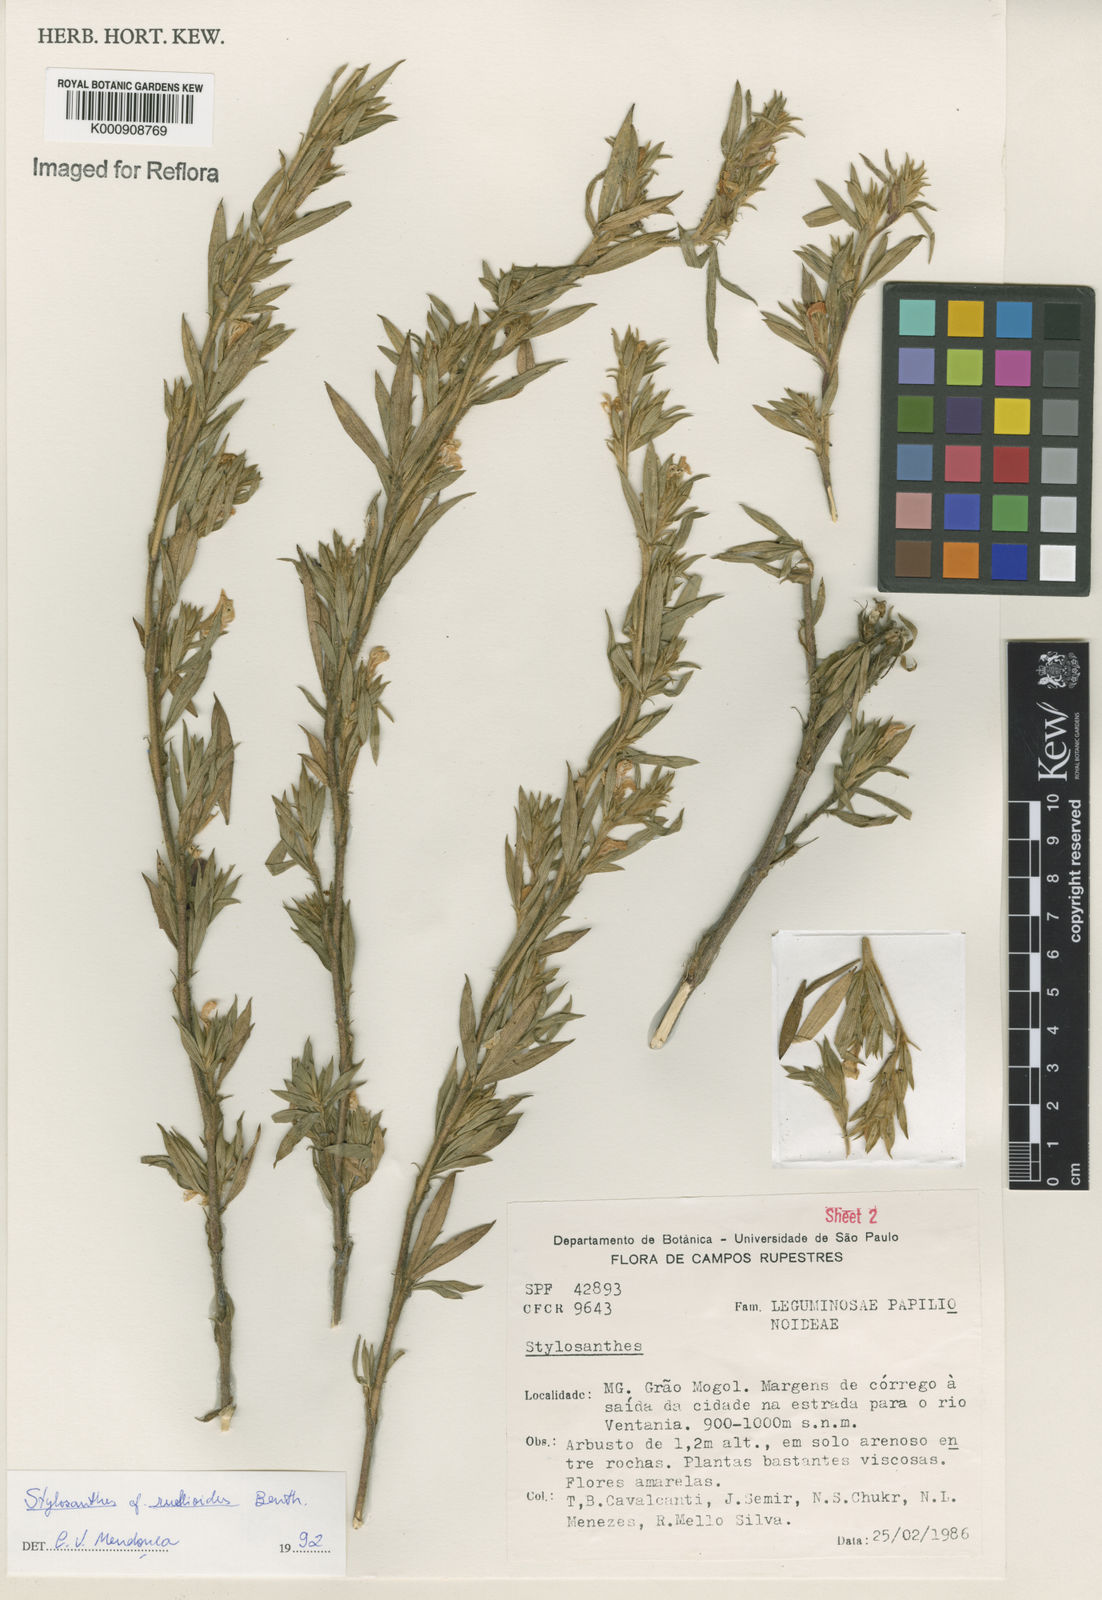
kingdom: Plantae
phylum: Tracheophyta
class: Magnoliopsida
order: Fabales
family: Fabaceae
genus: Stylosanthes
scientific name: Stylosanthes ruellioides
